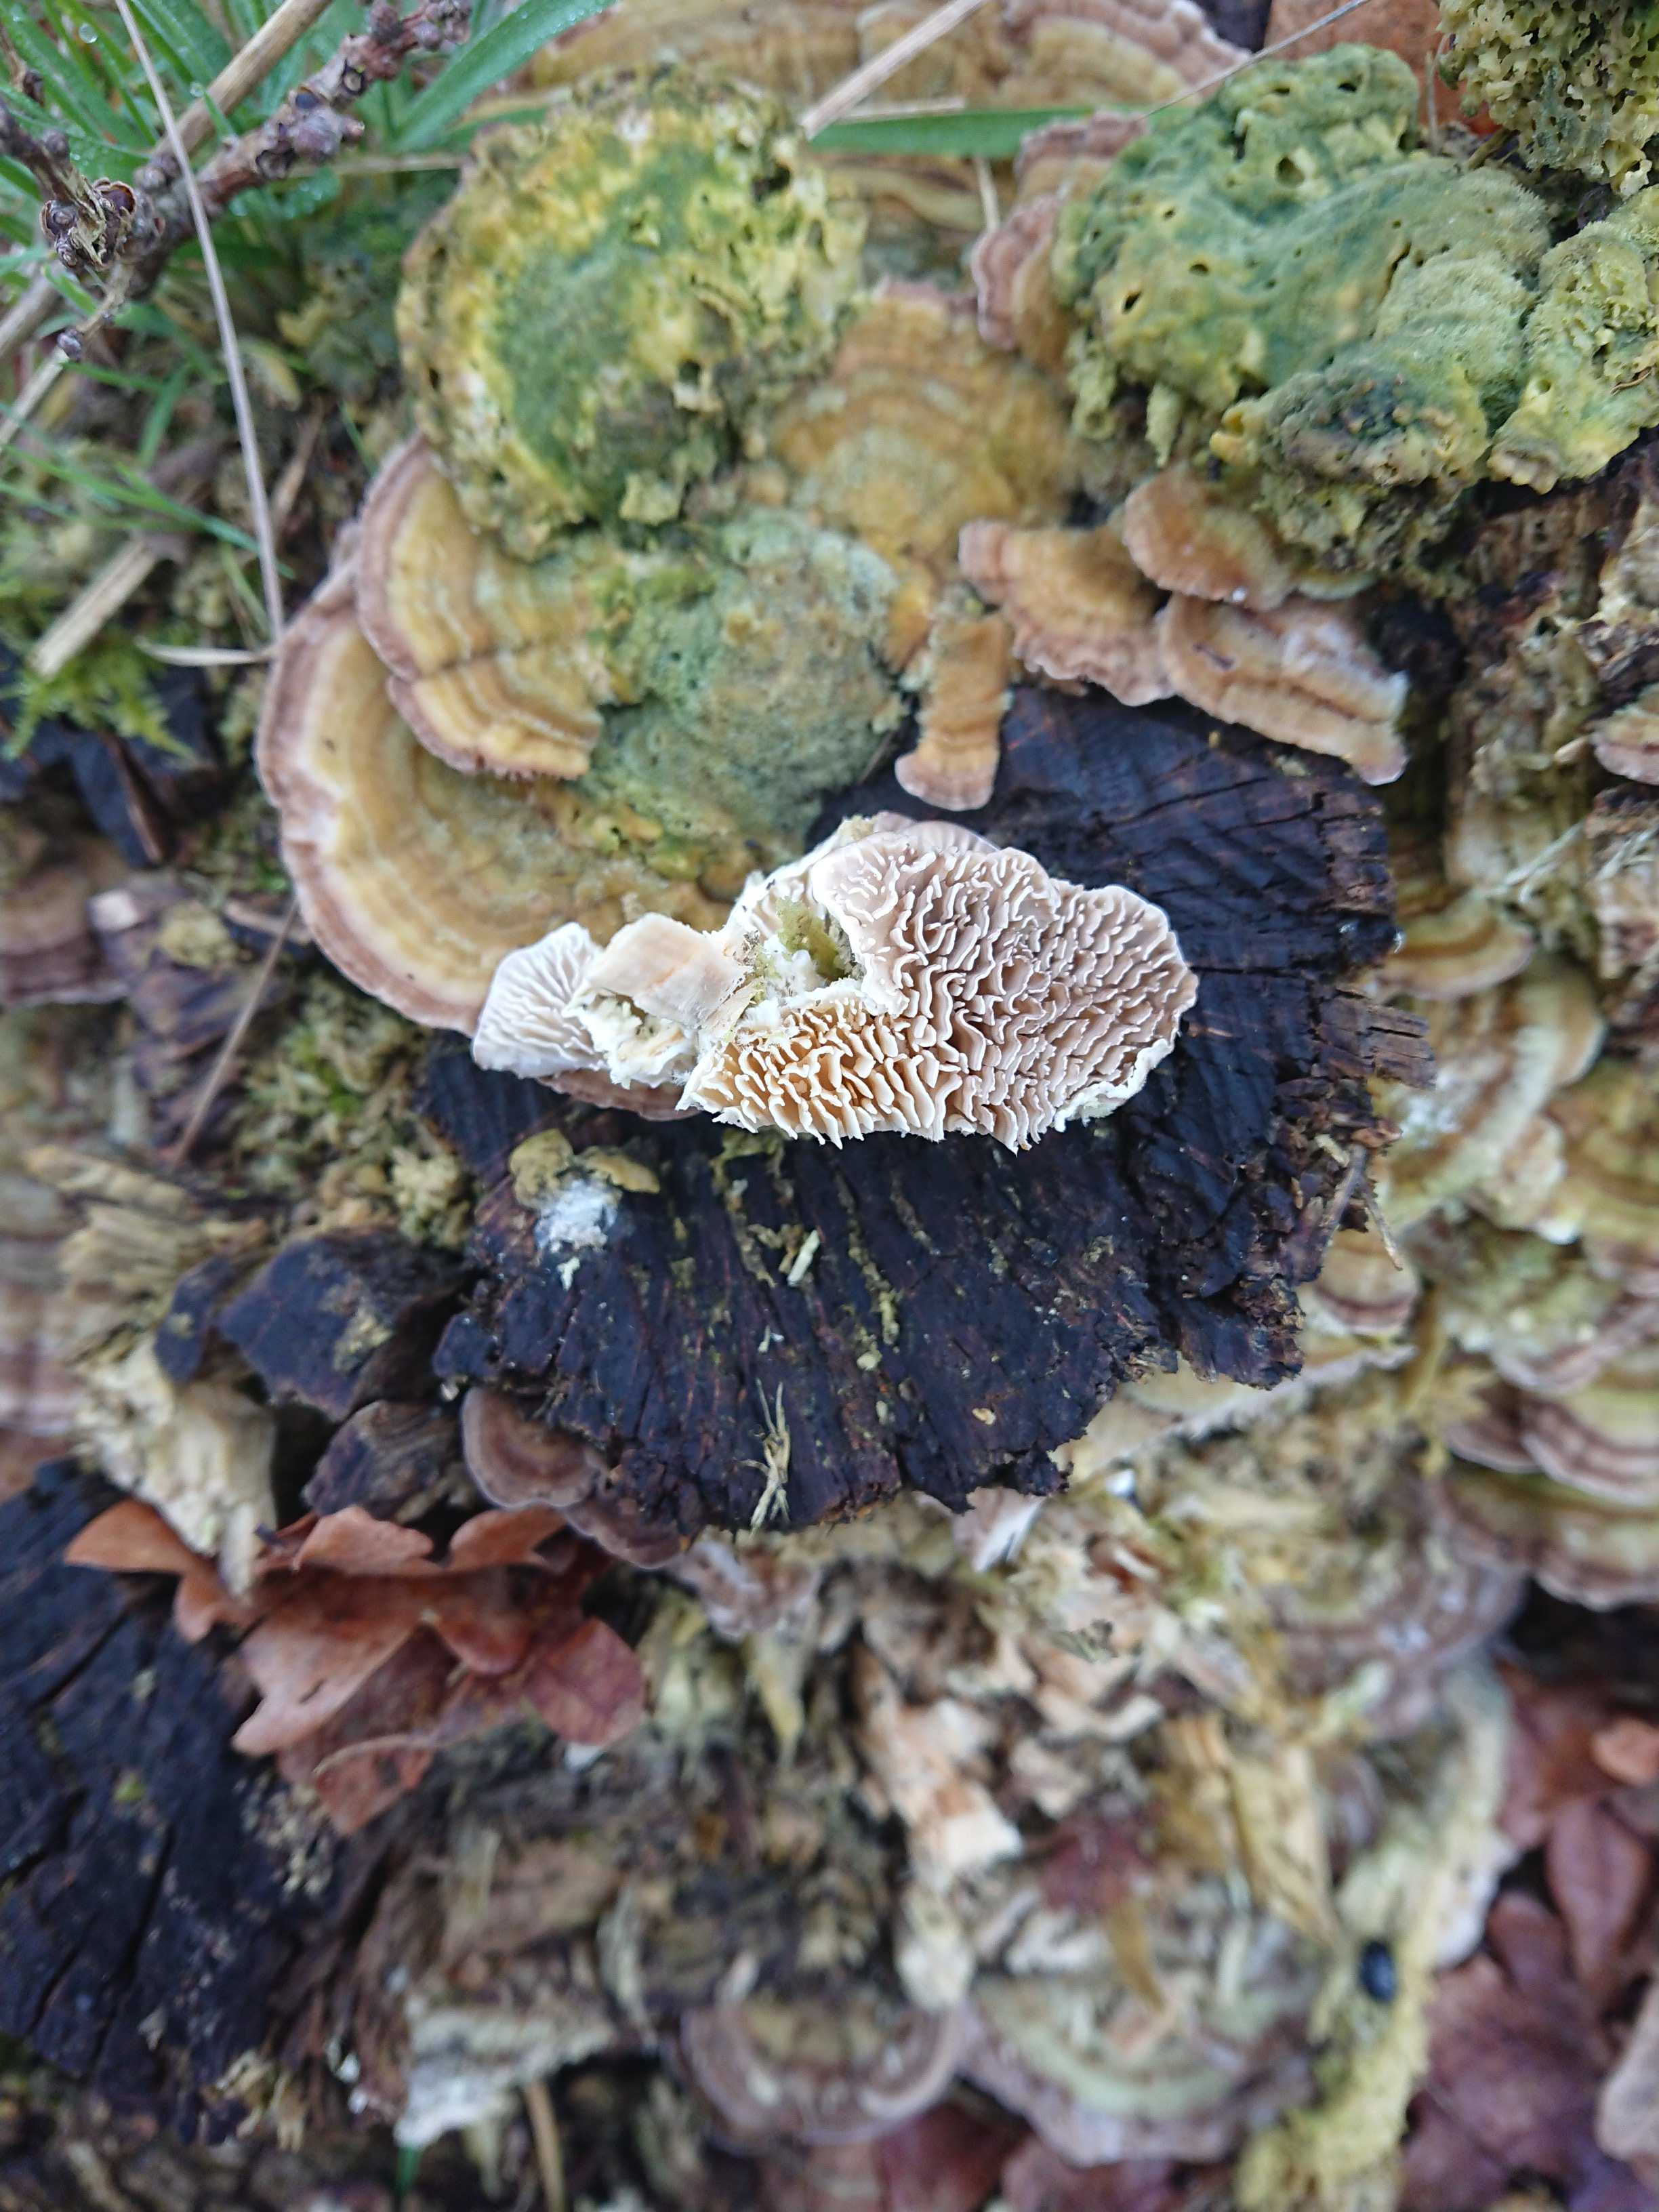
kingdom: Fungi
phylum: Basidiomycota
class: Agaricomycetes
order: Polyporales
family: Polyporaceae
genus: Lenzites
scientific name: Lenzites betulinus
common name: birke-læderporesvamp
